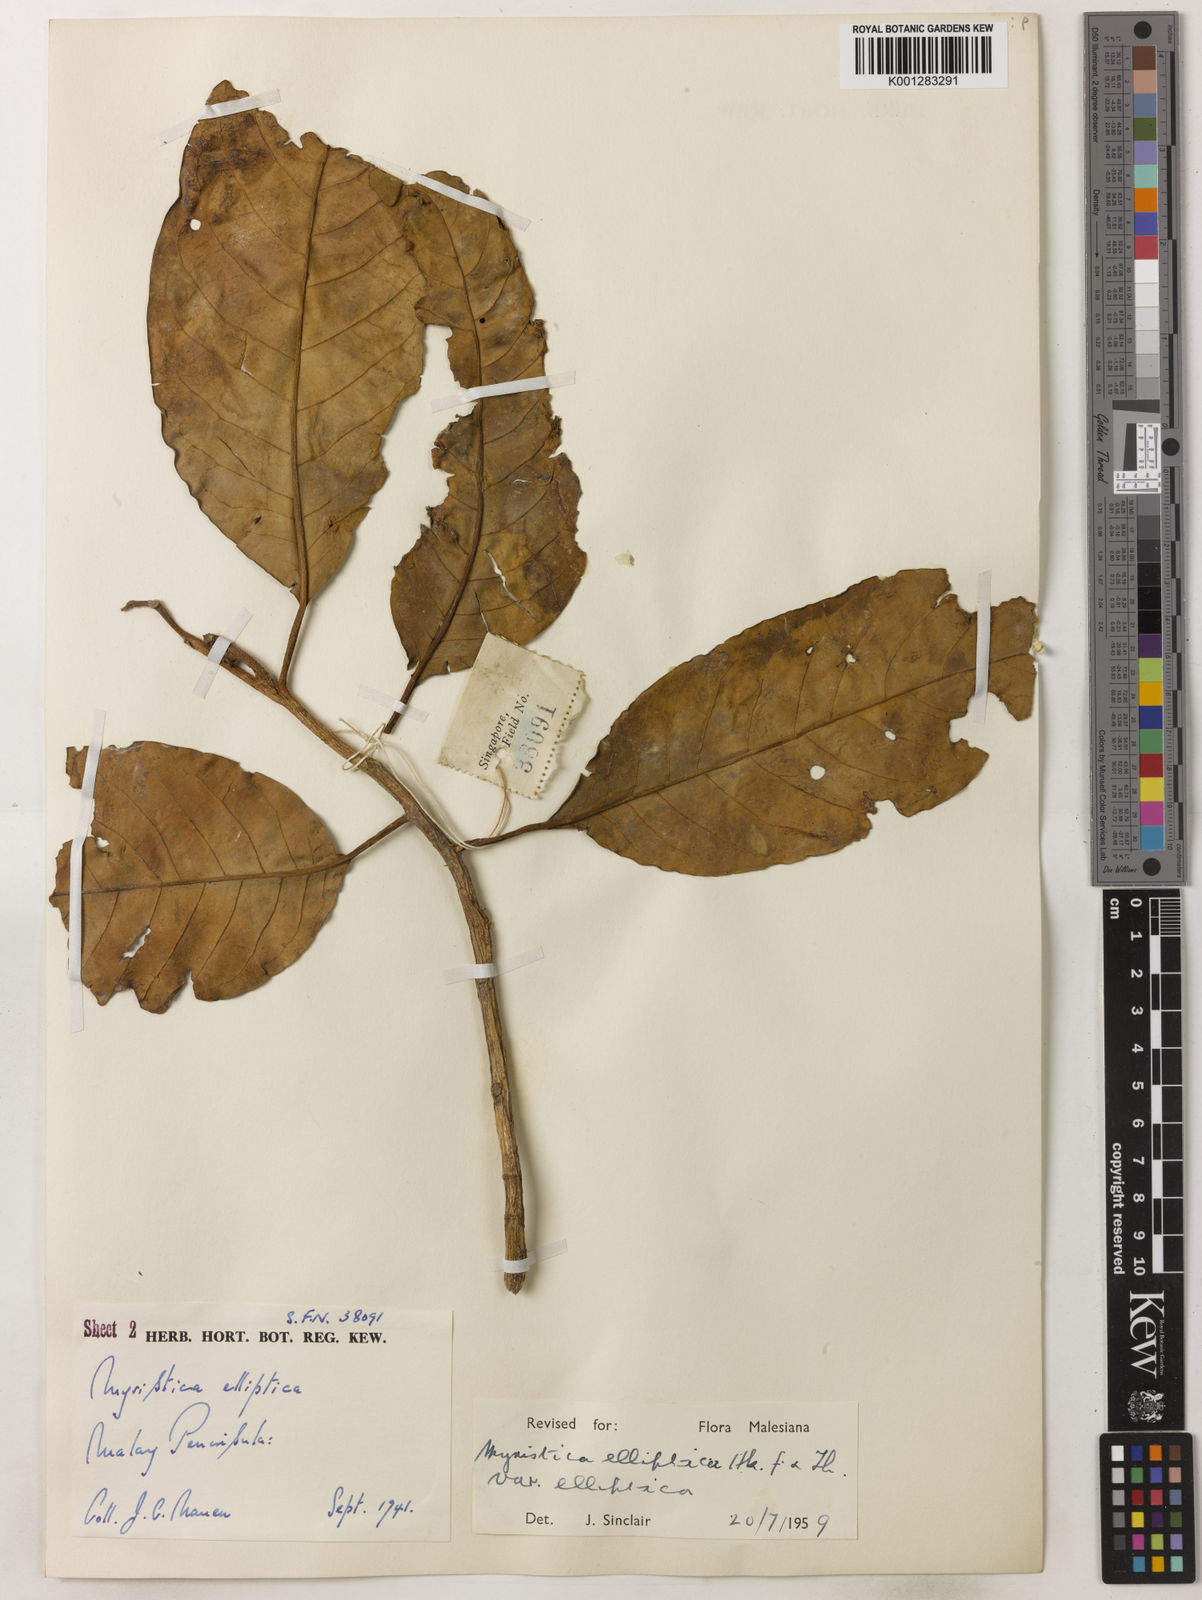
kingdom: Plantae
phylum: Tracheophyta
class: Magnoliopsida
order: Magnoliales
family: Myristicaceae
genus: Myristica
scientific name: Myristica elliptica
